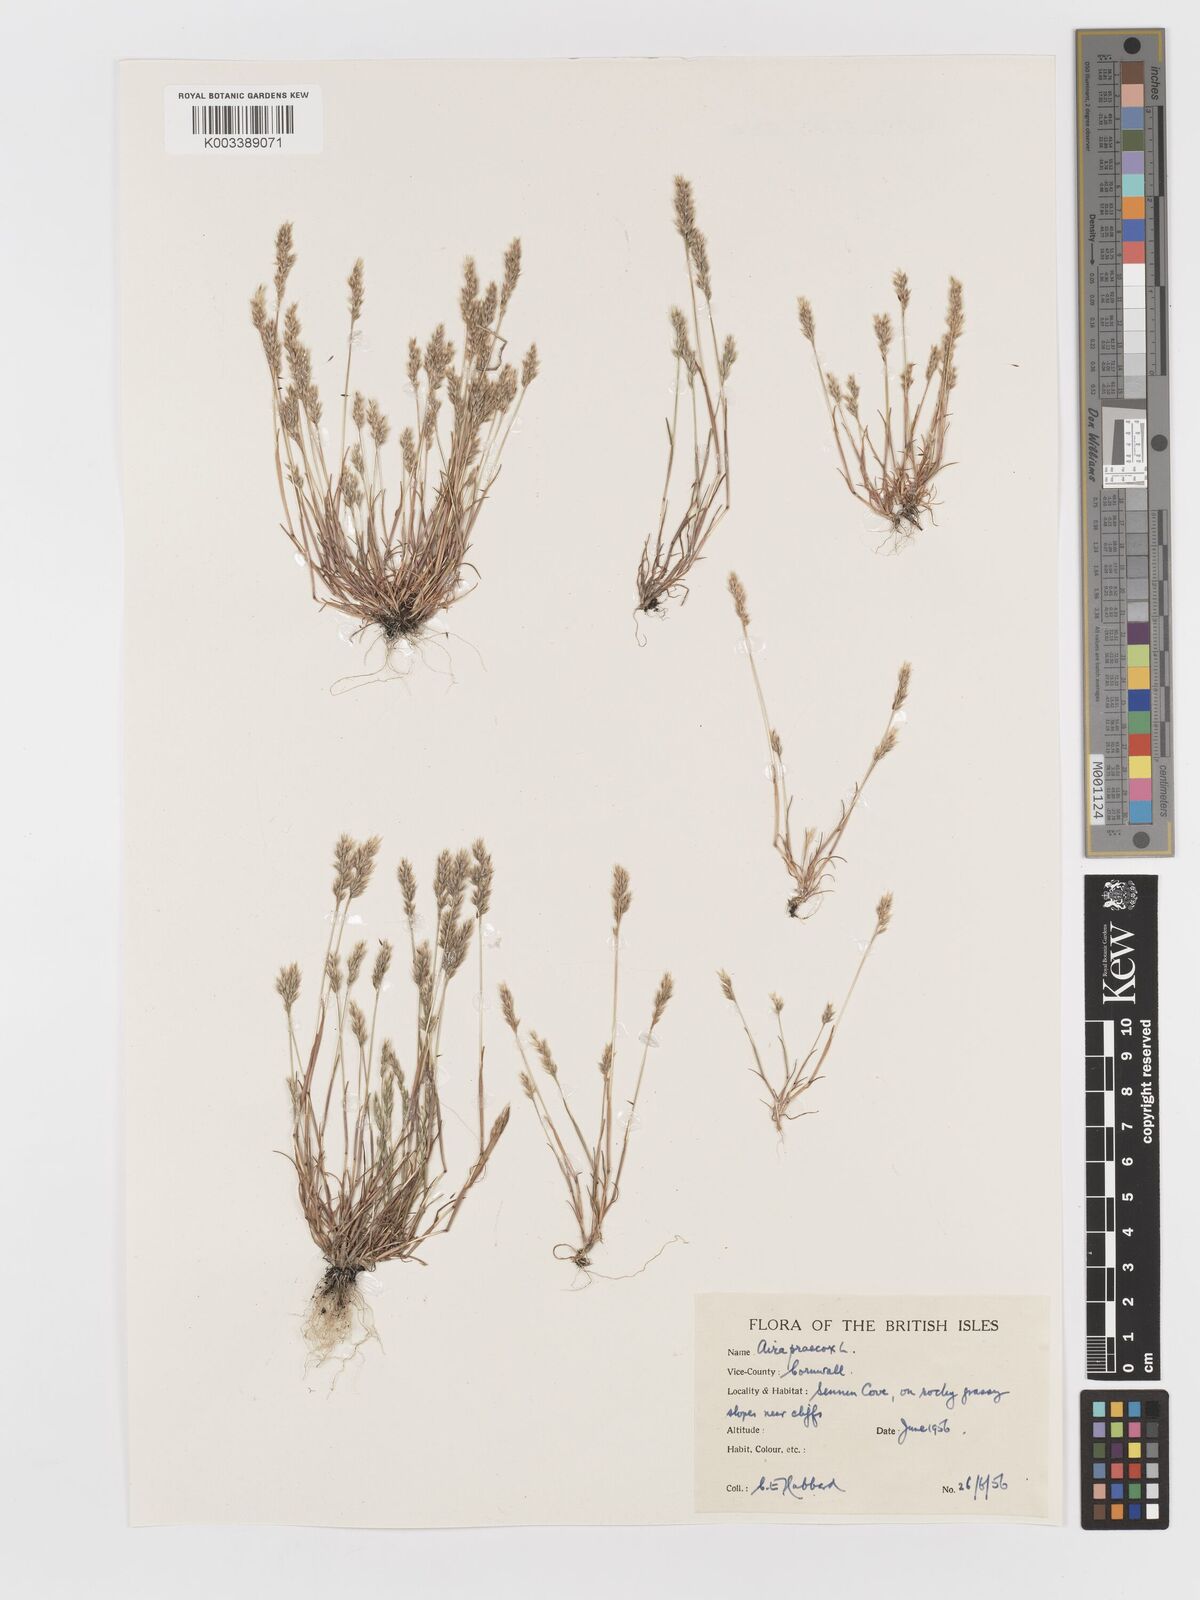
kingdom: Plantae
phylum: Tracheophyta
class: Liliopsida
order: Poales
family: Poaceae
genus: Aira
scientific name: Aira praecox
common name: Early hair-grass
